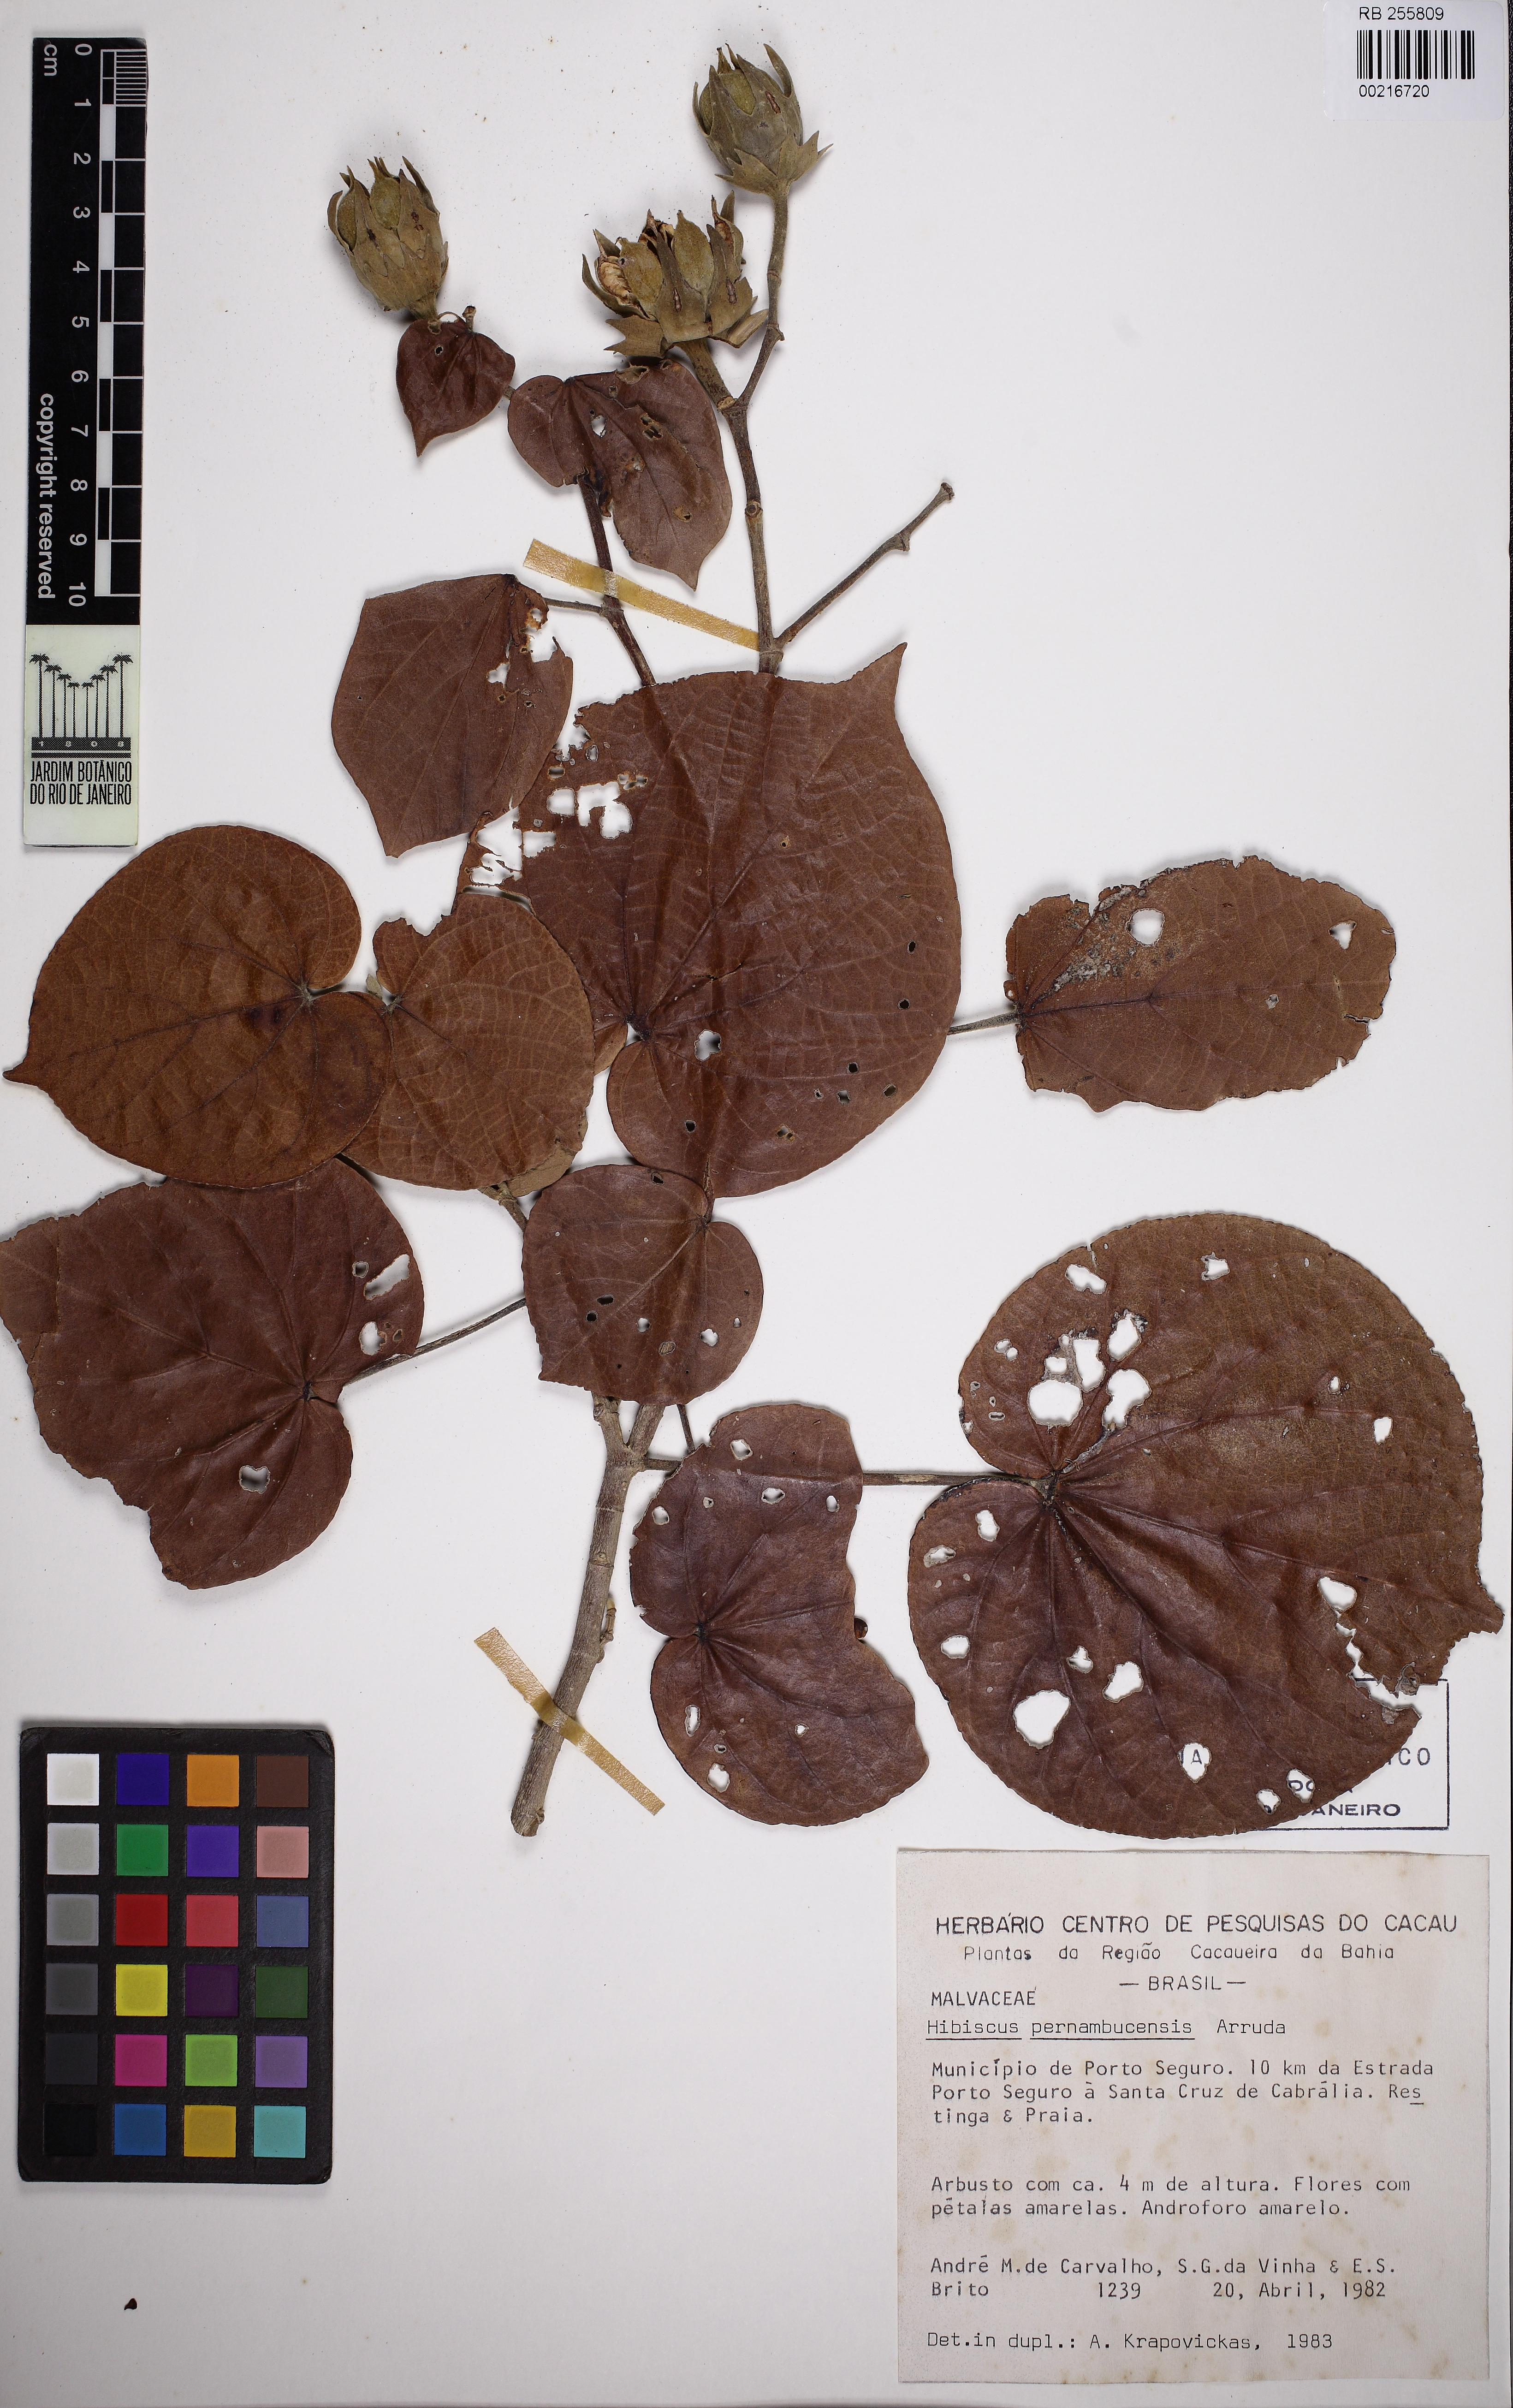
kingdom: Plantae
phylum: Tracheophyta
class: Magnoliopsida
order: Malvales
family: Malvaceae
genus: Talipariti
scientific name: Talipariti pernambucense
